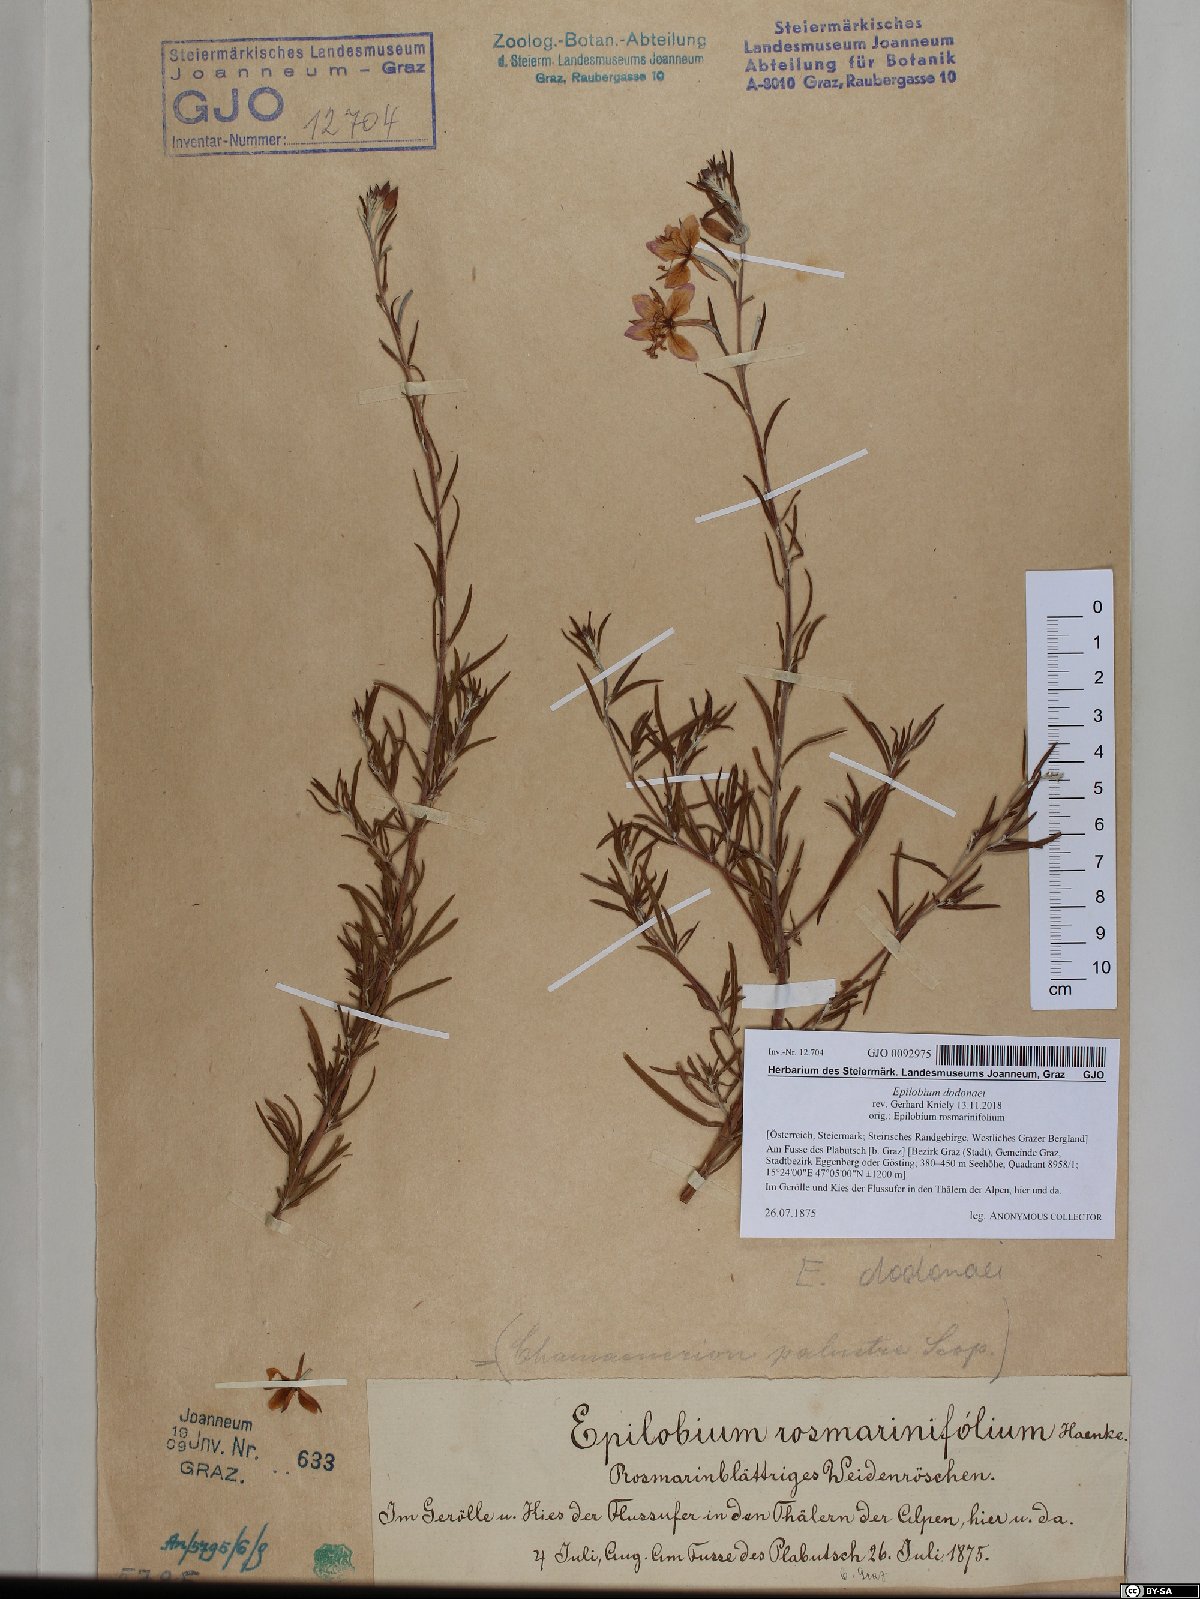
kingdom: Plantae
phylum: Tracheophyta
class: Magnoliopsida
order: Myrtales
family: Onagraceae
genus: Chamaenerion
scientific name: Chamaenerion dodonaei
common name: Rosemary-leaved willowherb
